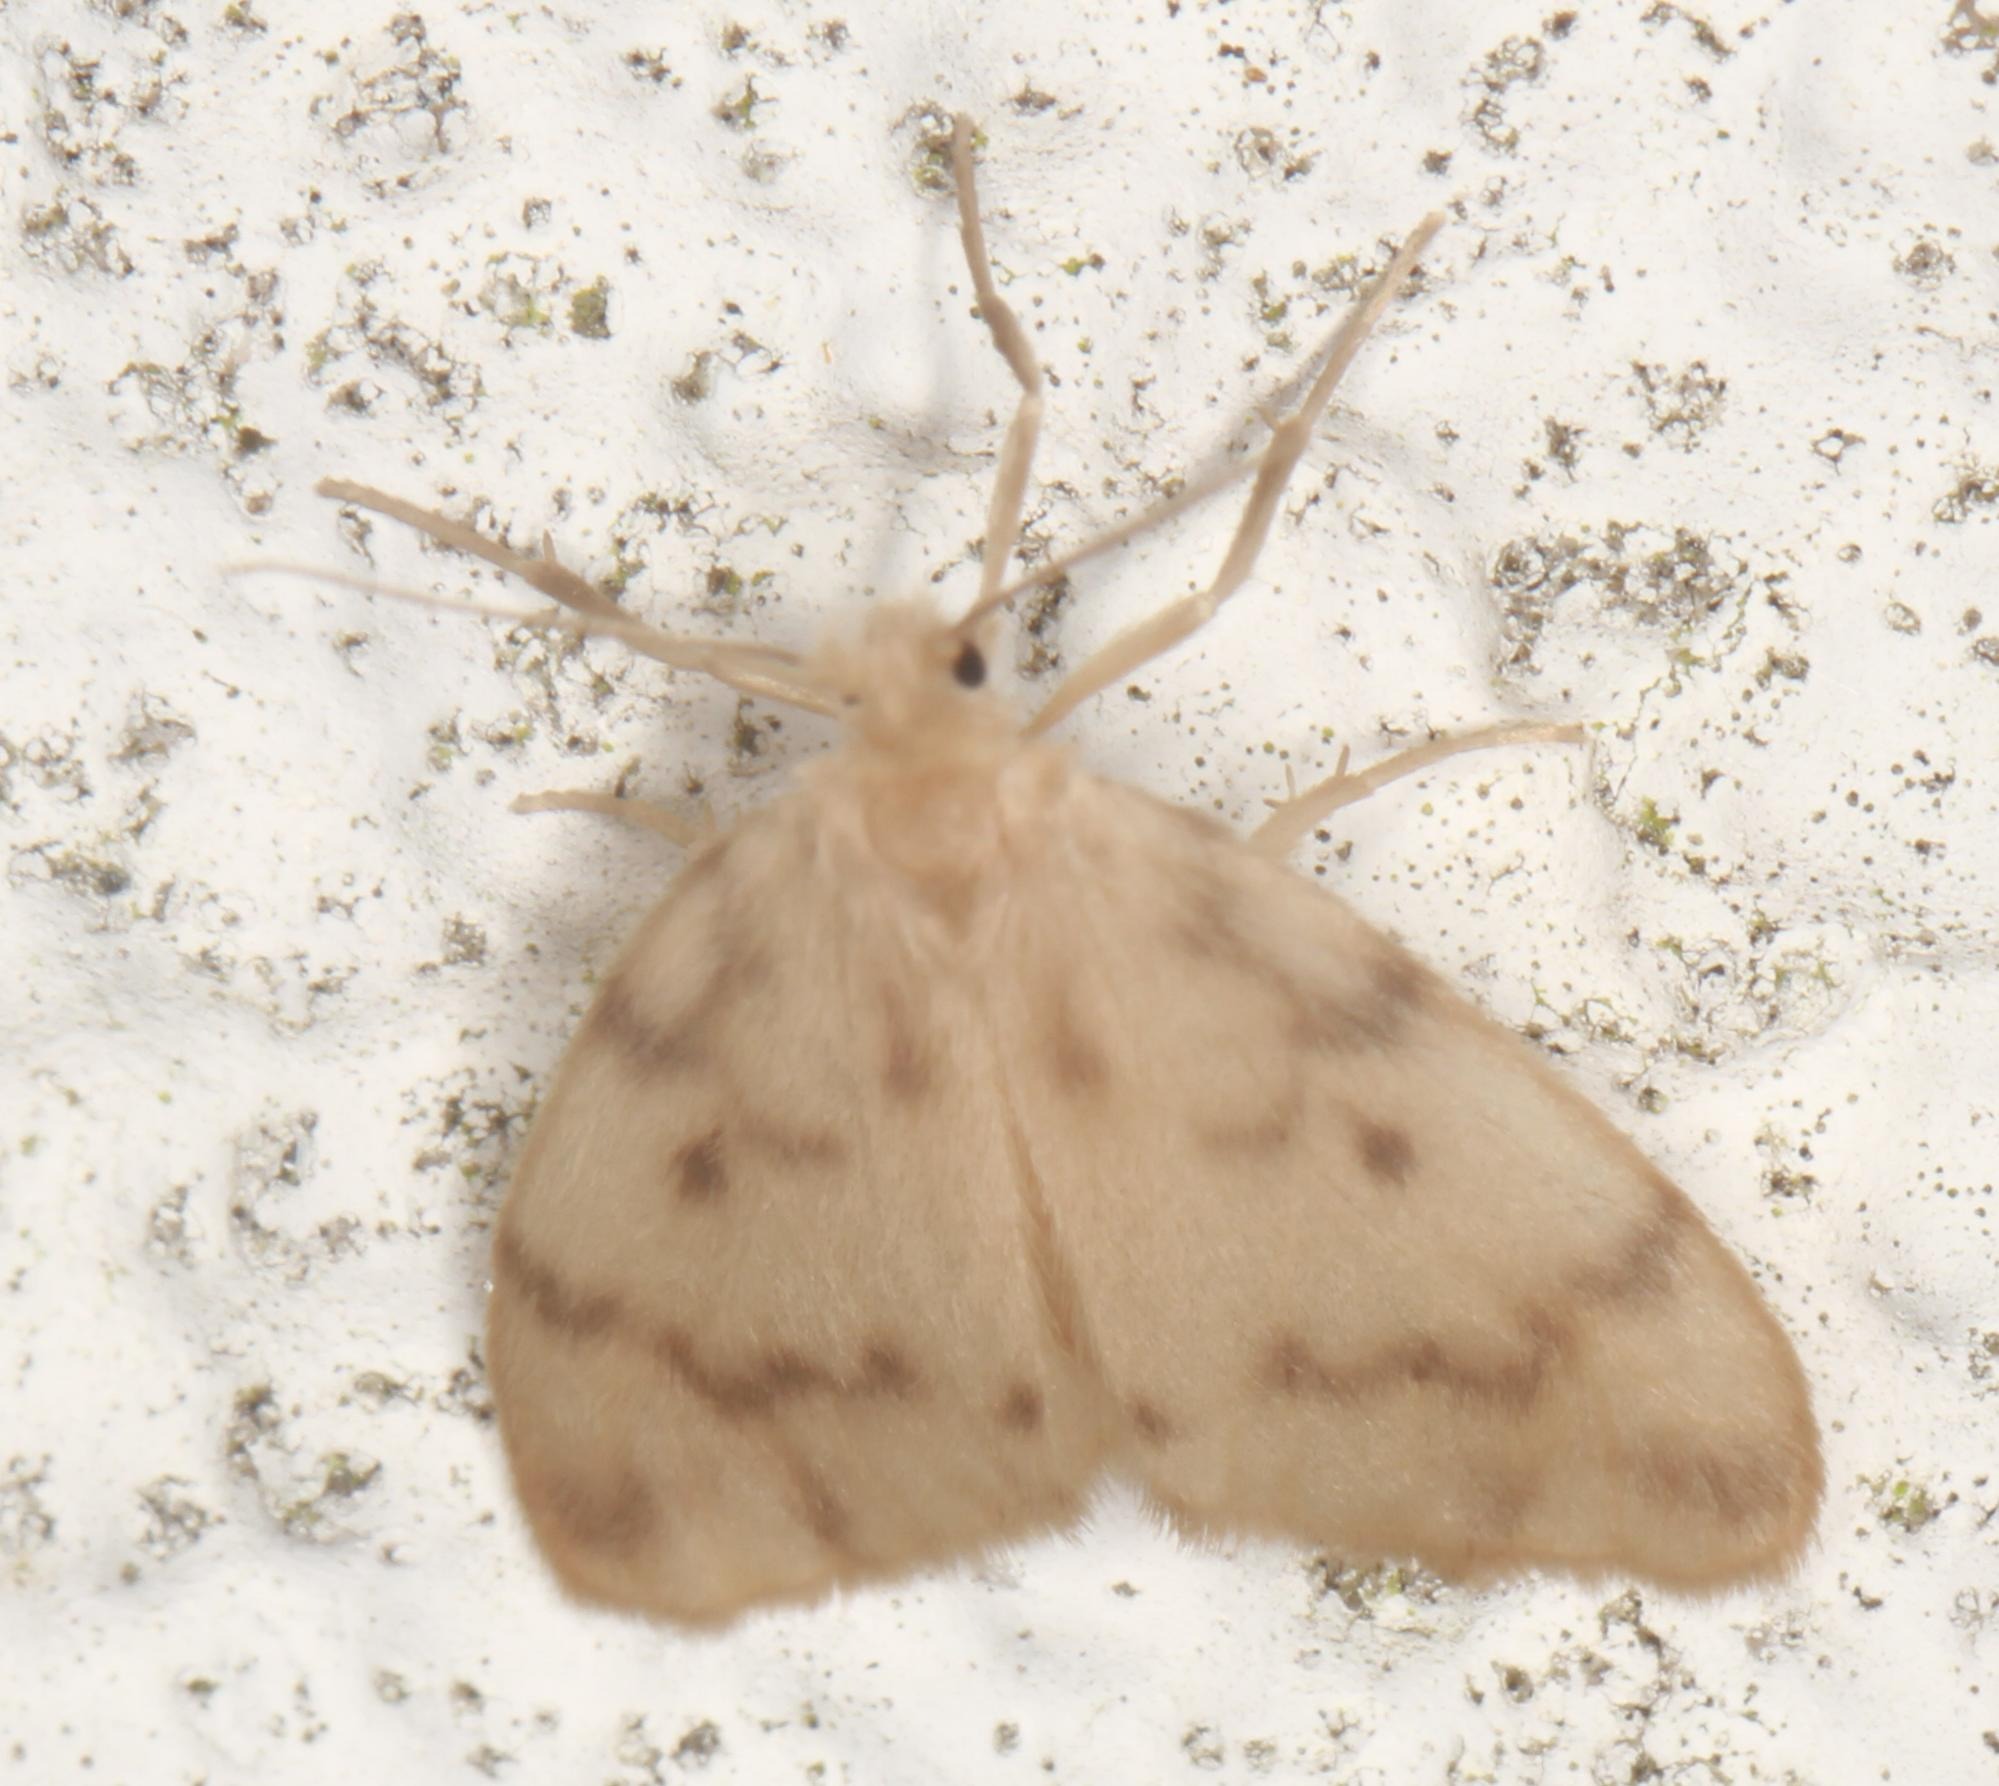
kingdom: Animalia
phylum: Arthropoda
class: Insecta
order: Lepidoptera
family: Erebidae
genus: Nudaria
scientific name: Nudaria mundana
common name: Dværgspinder
